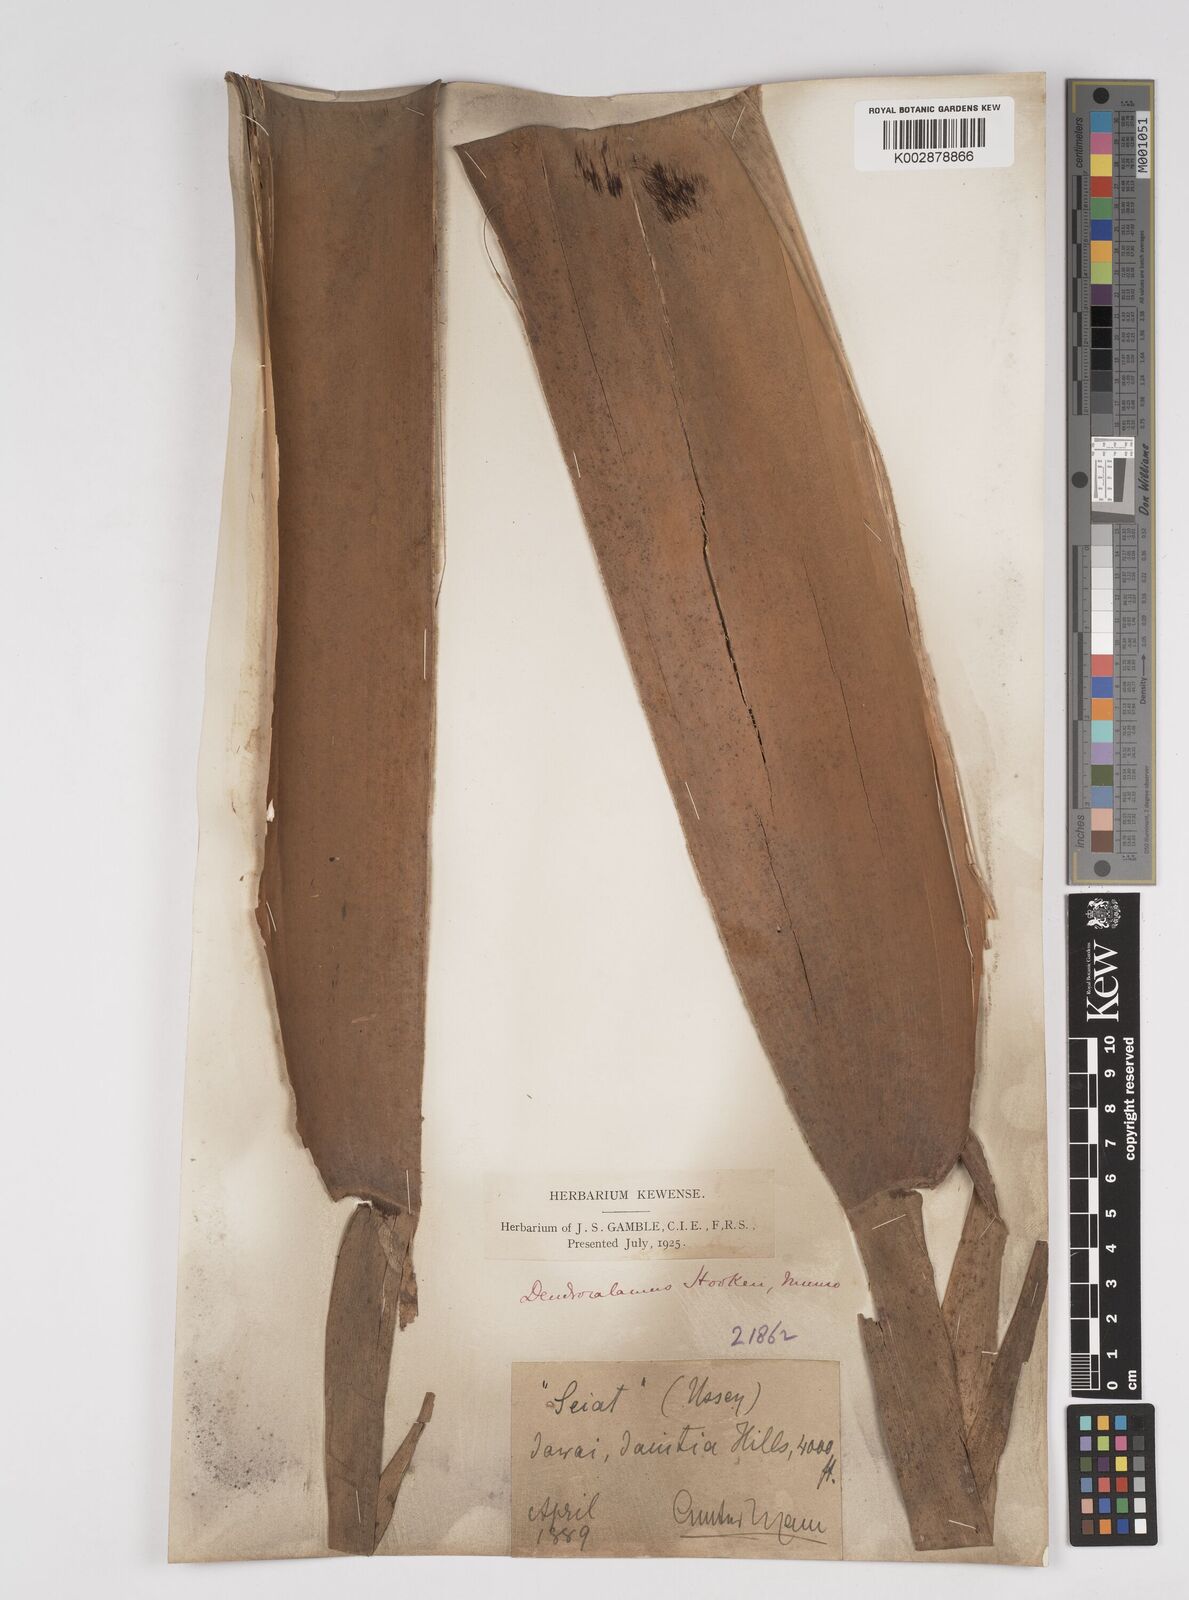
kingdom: Plantae
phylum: Tracheophyta
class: Liliopsida
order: Poales
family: Poaceae
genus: Dendrocalamus
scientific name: Dendrocalamus hookeri
